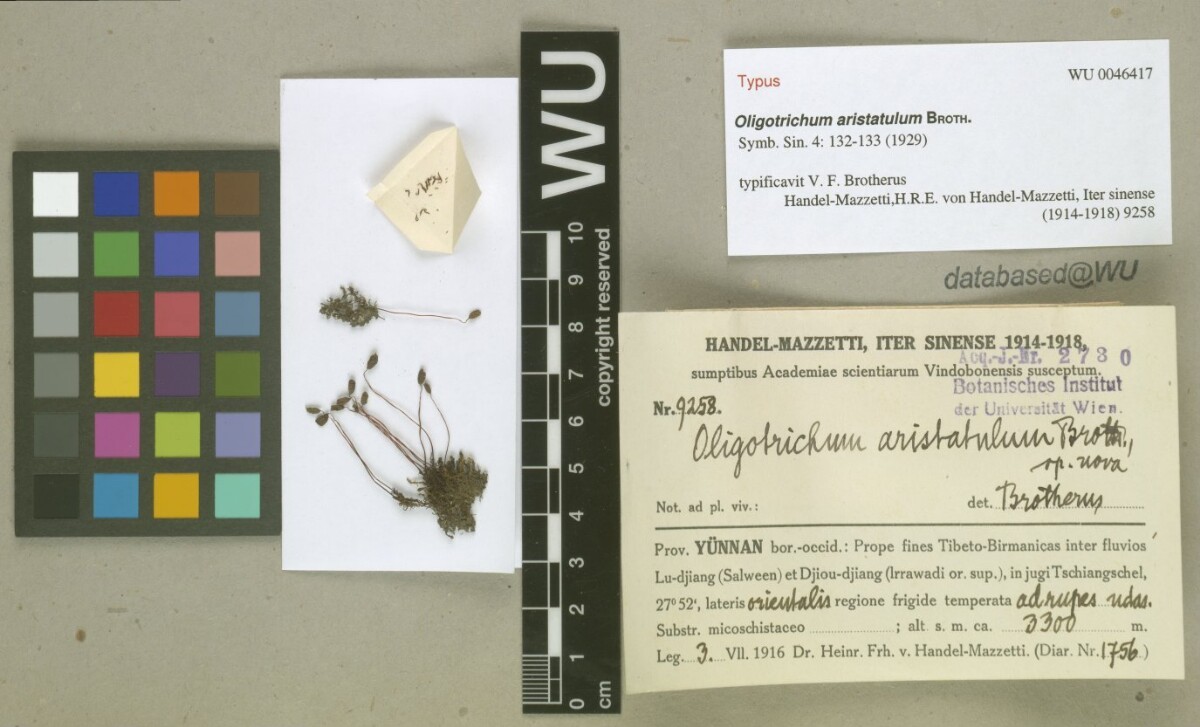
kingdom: Plantae
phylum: Bryophyta
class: Polytrichopsida
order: Polytrichales
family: Polytrichaceae
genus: Oligotrichum
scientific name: Oligotrichum aristatulum
